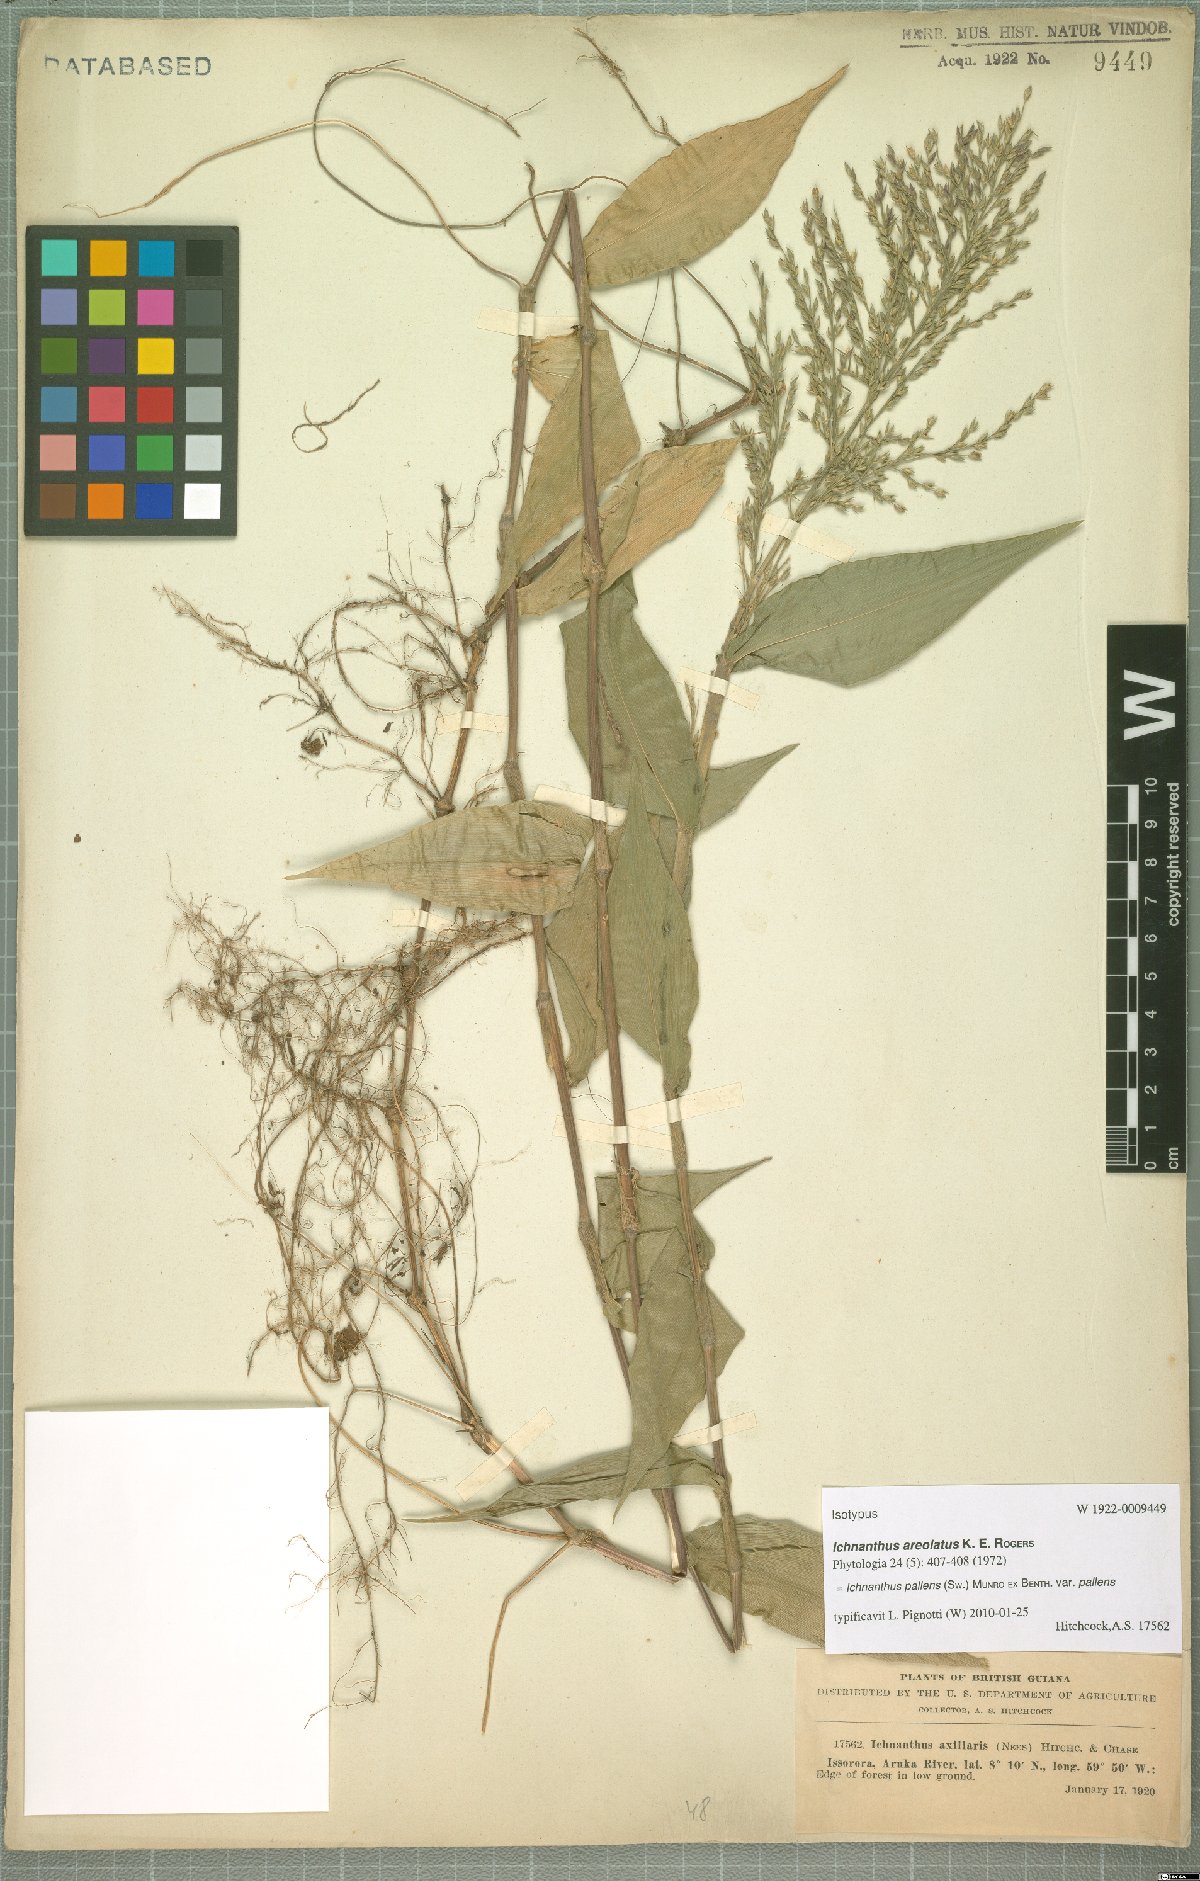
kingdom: Plantae
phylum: Tracheophyta
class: Liliopsida
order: Poales
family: Poaceae
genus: Ichnanthus
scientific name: Ichnanthus pallens
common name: Water grass
